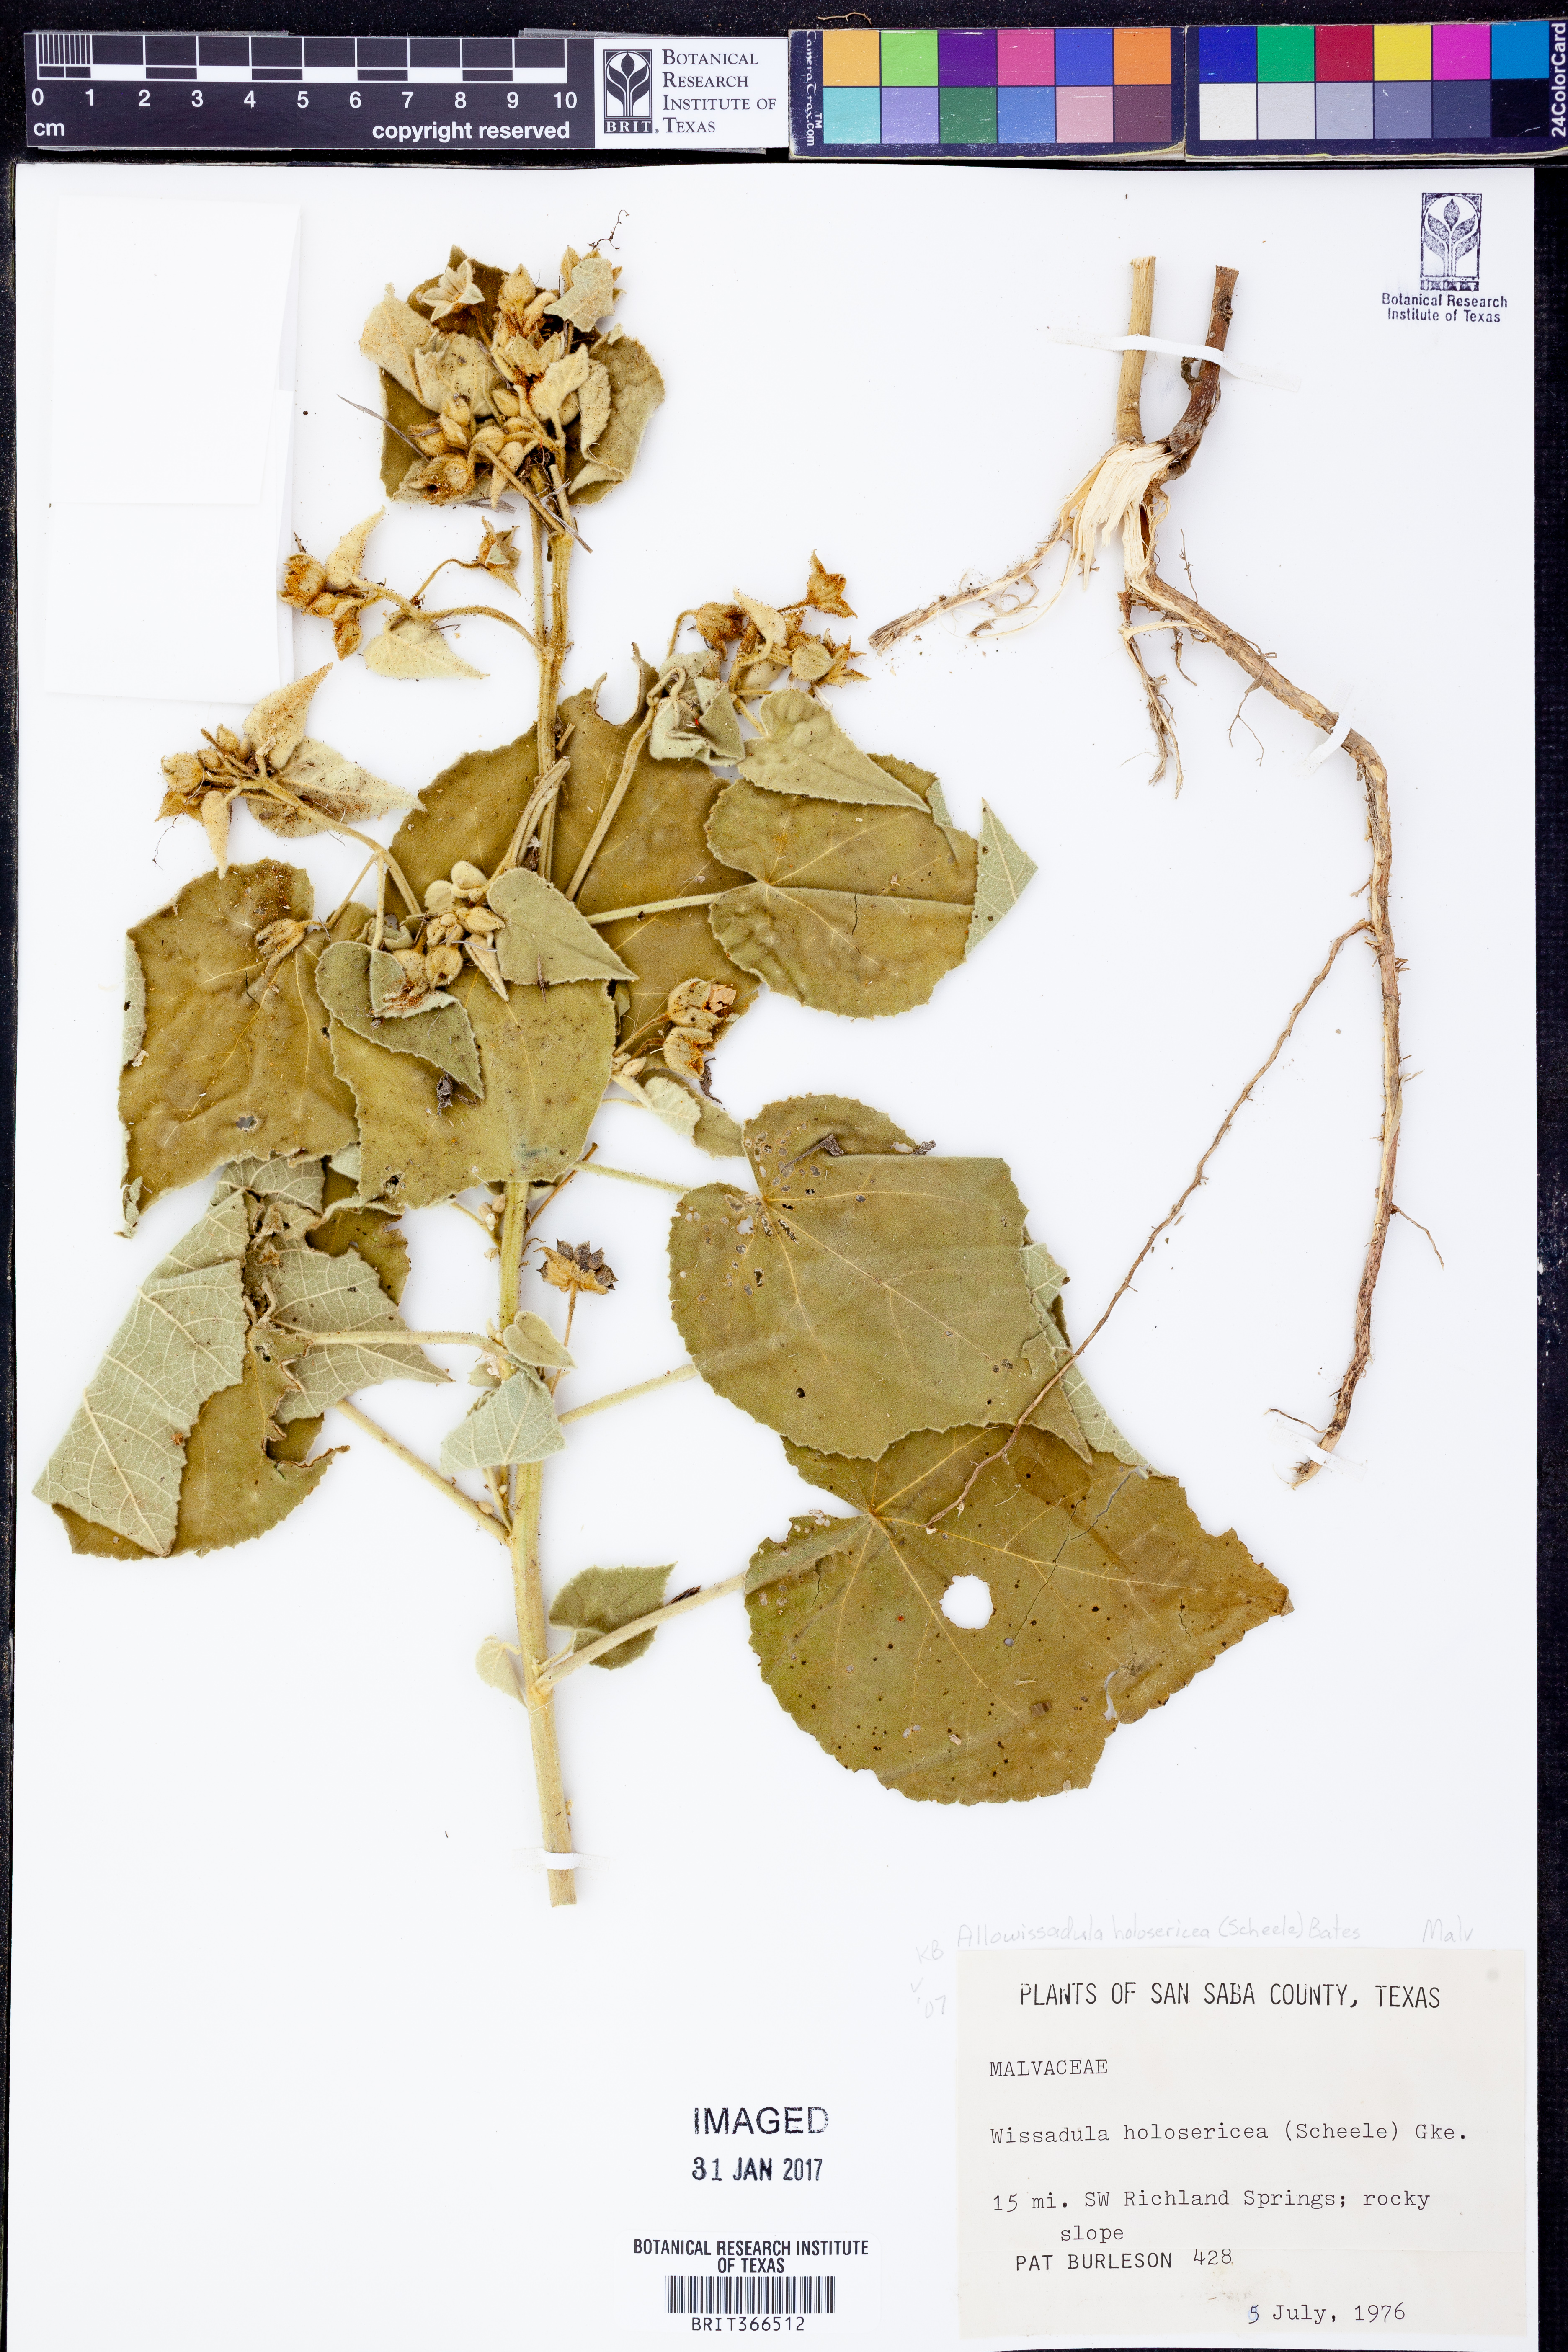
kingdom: Plantae
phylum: Tracheophyta
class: Magnoliopsida
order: Malvales
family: Malvaceae
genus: Allowissadula
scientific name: Allowissadula holosericea
